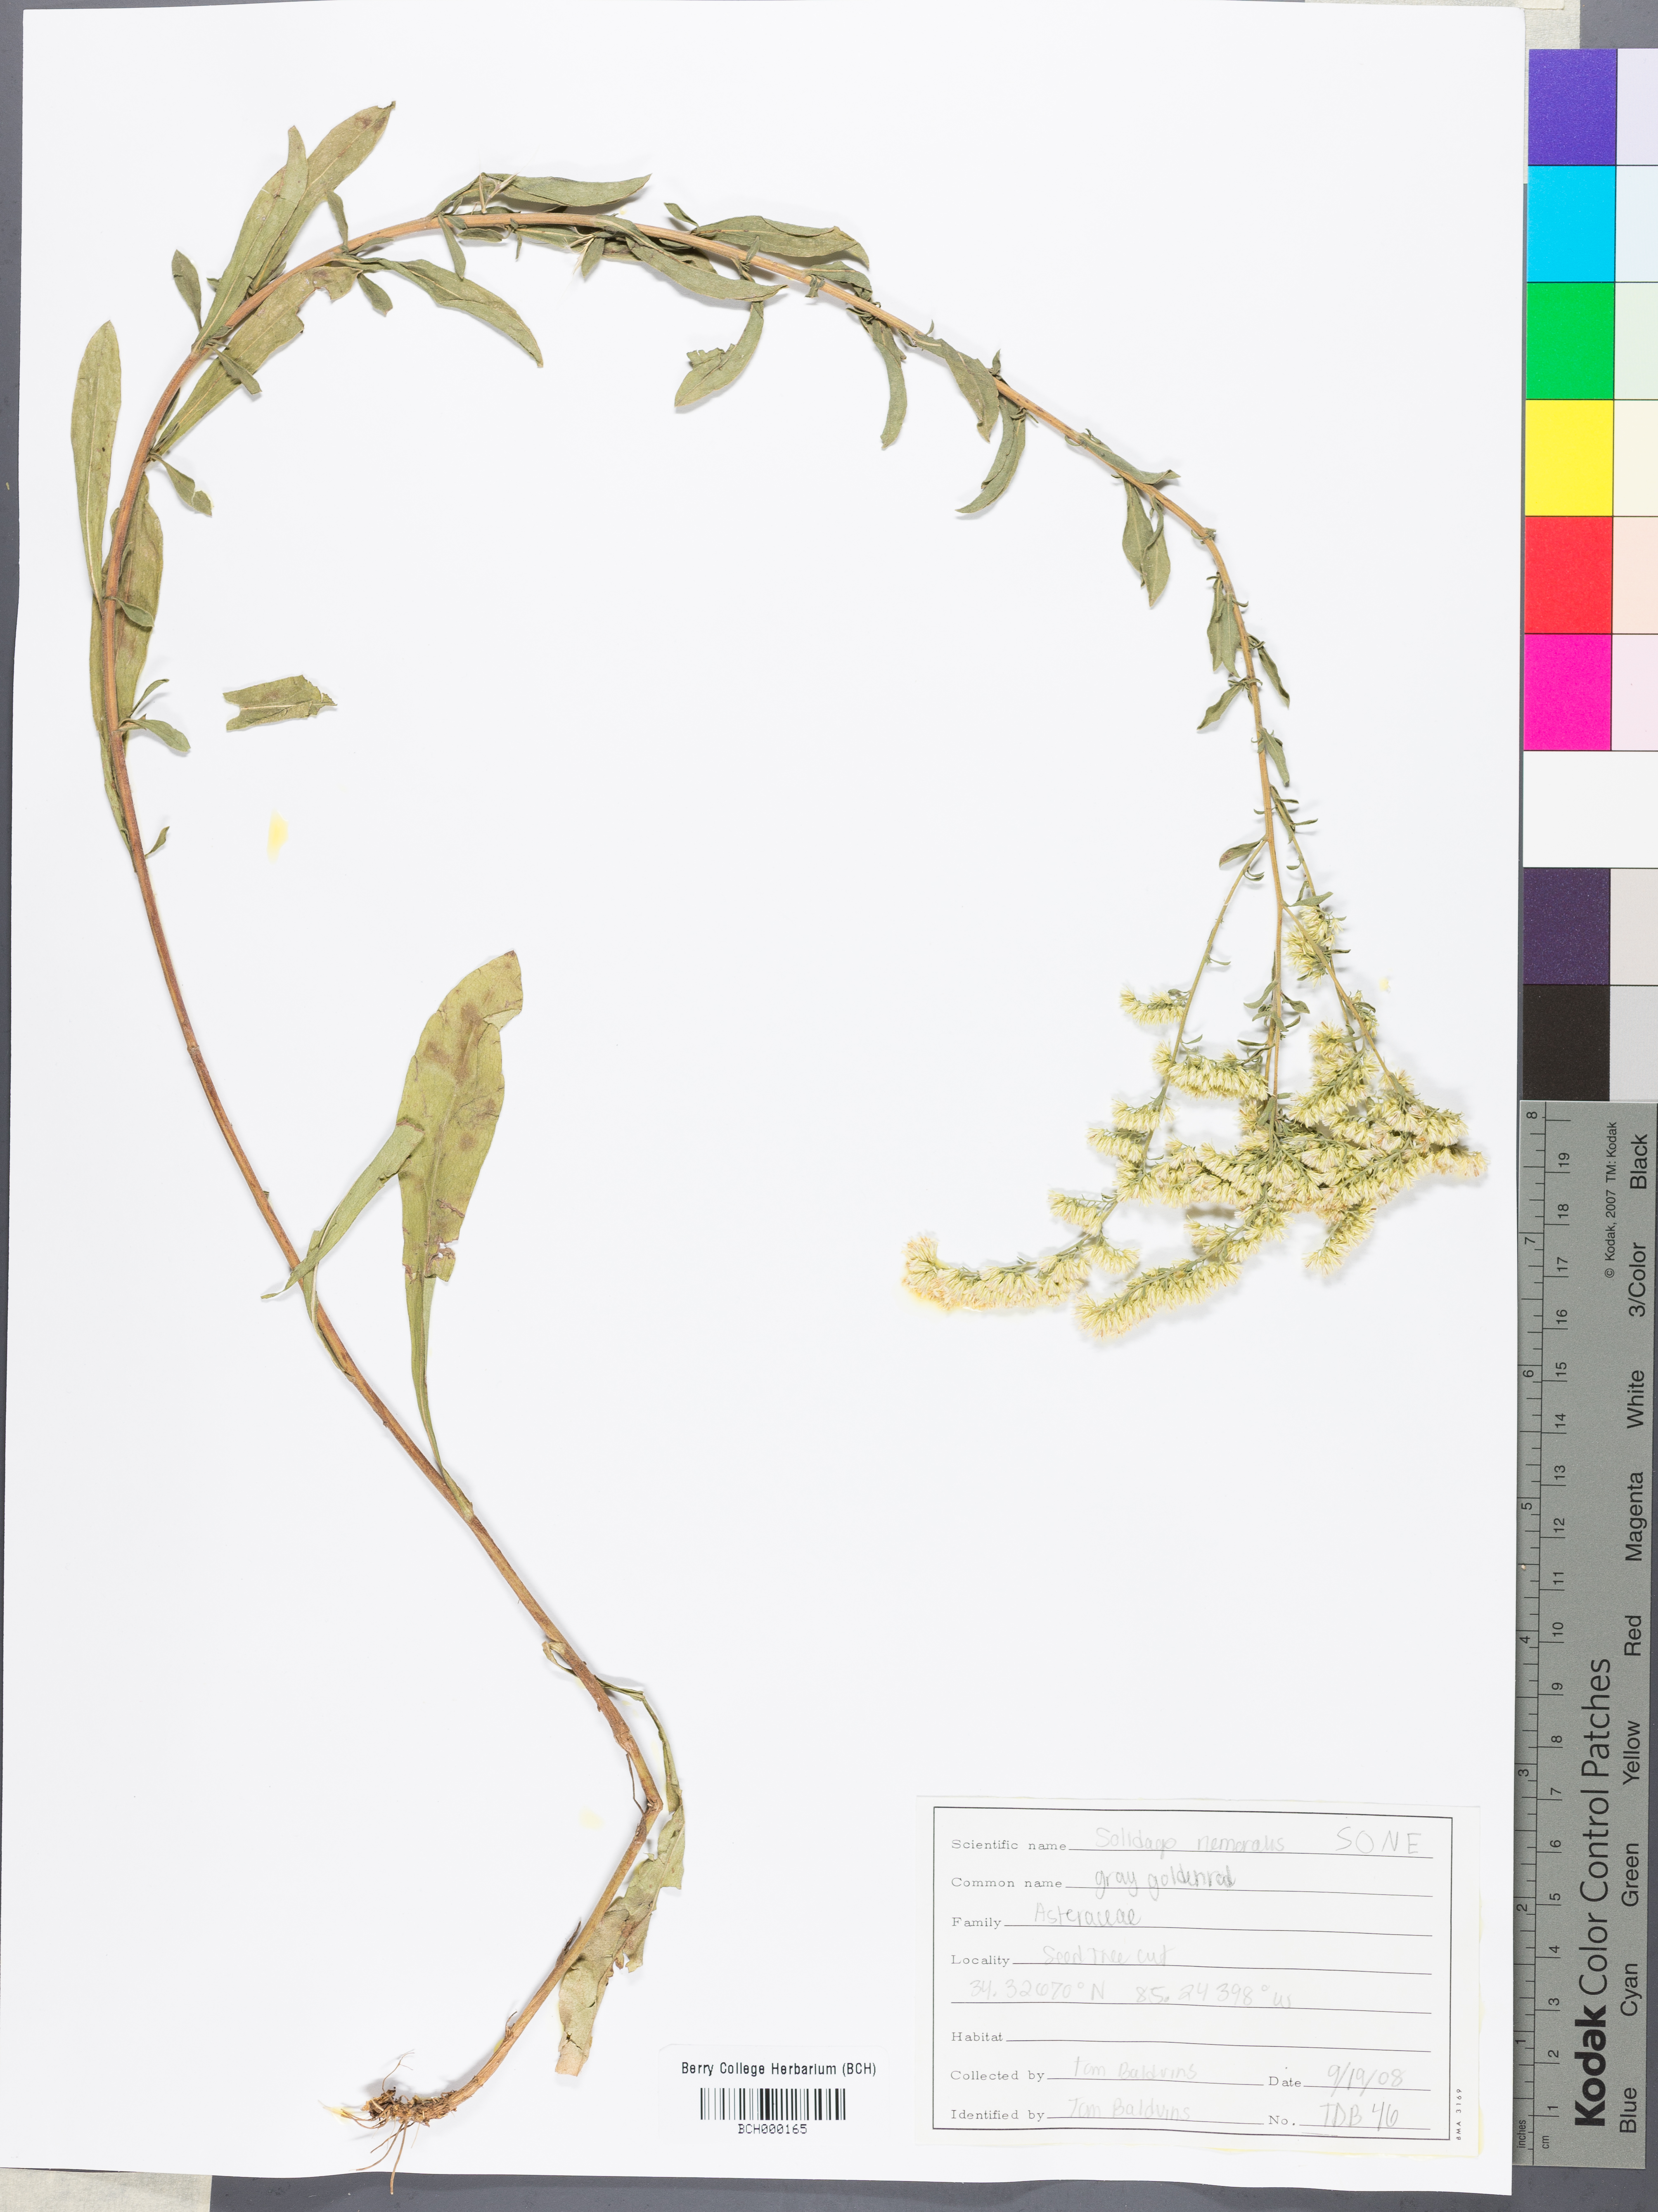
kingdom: Plantae
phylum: Tracheophyta
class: Magnoliopsida
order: Asterales
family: Asteraceae
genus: Solidago
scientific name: Solidago nemoralis
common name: Grey goldenrod
